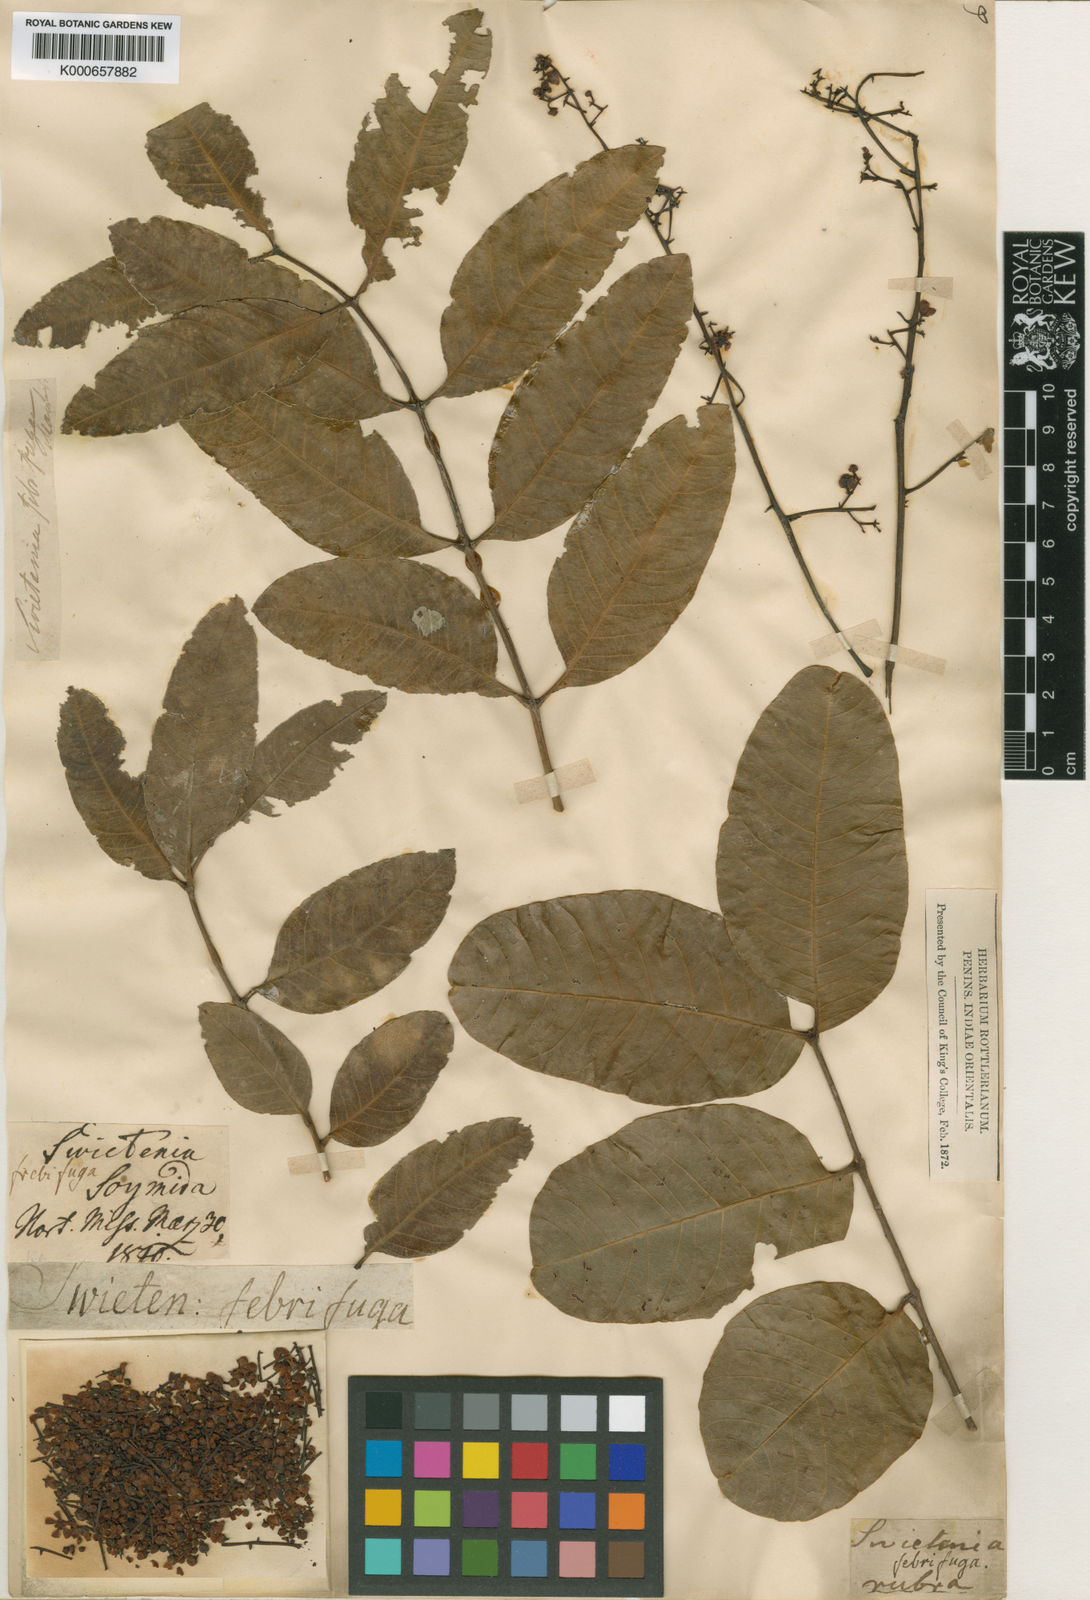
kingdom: Plantae
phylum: Tracheophyta
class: Magnoliopsida
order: Sapindales
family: Meliaceae
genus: Soymida
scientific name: Soymida febrifuga
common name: Indian-redwood
